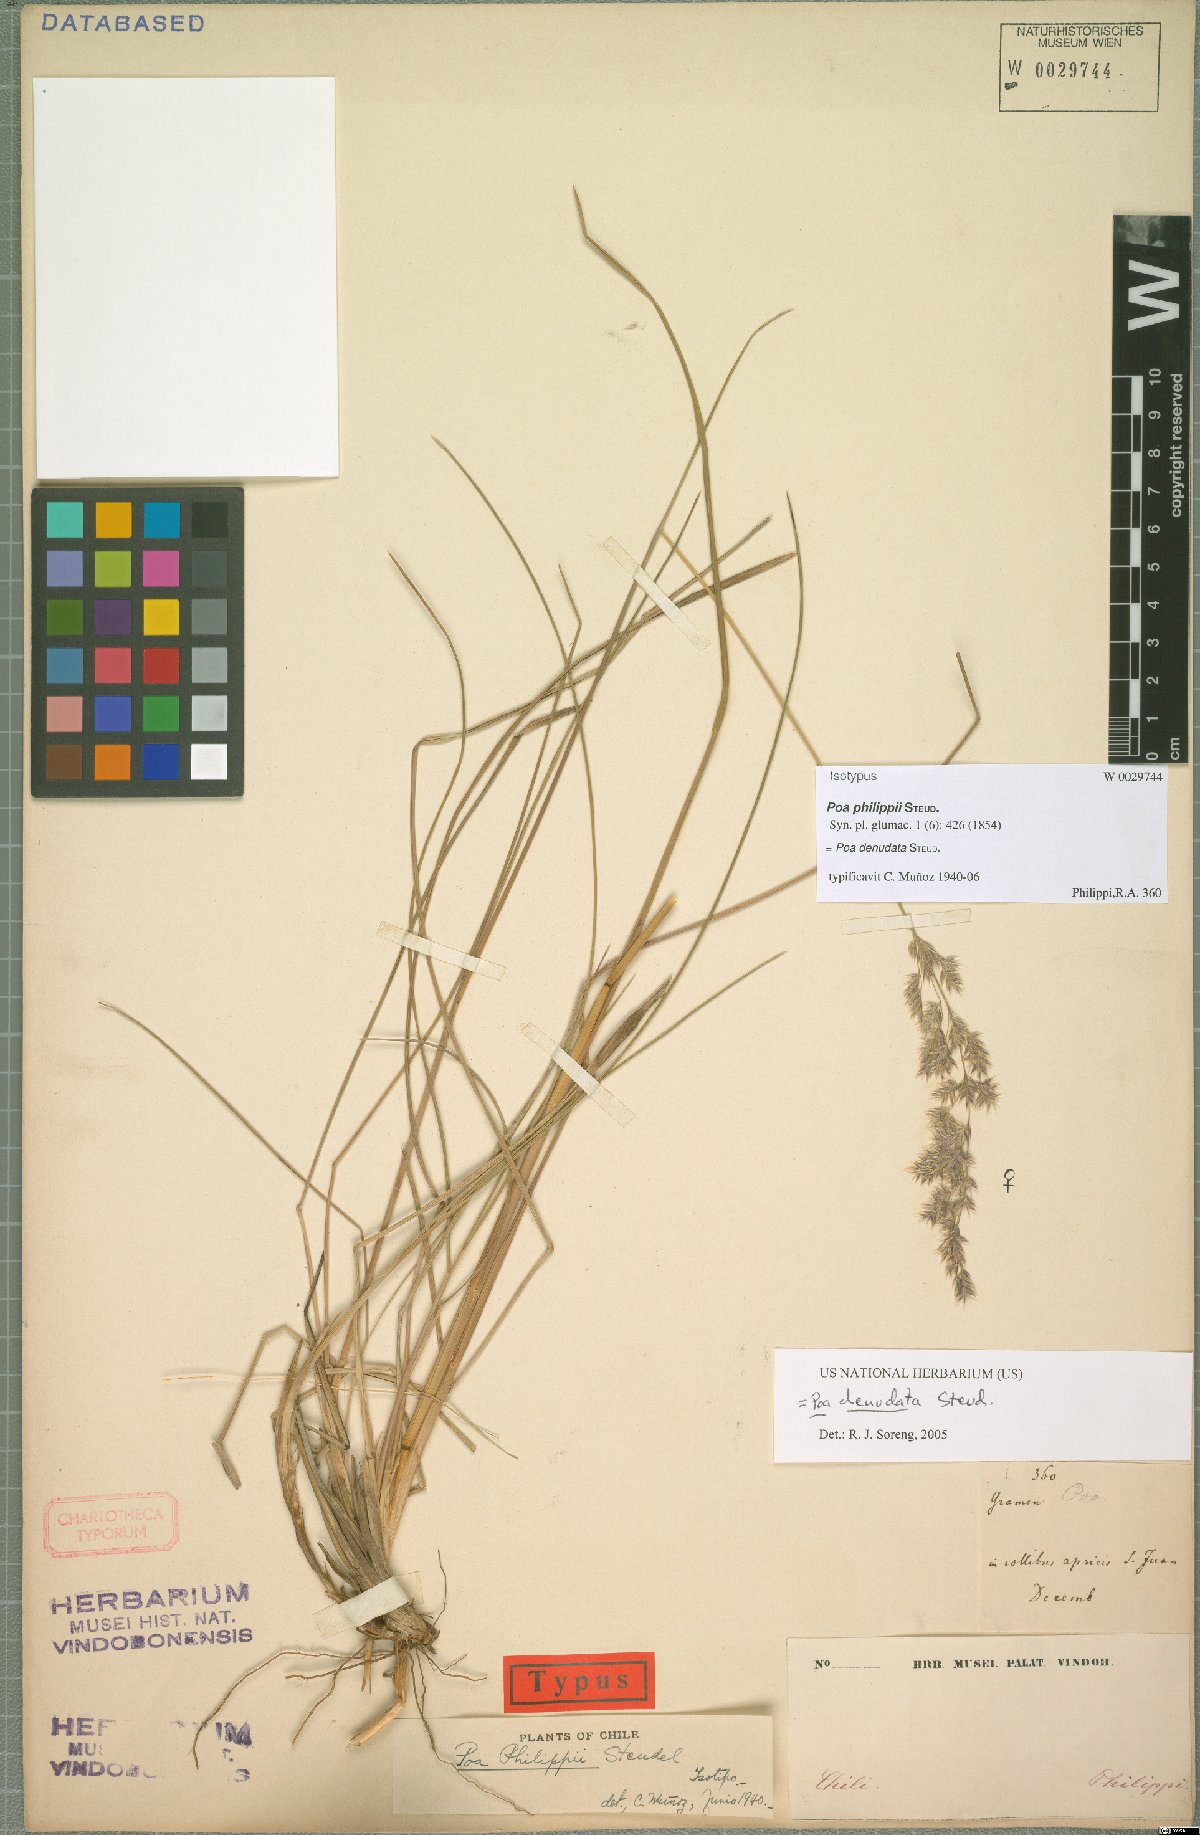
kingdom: Plantae
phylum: Tracheophyta
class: Liliopsida
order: Poales
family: Poaceae
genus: Poa
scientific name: Poa denudata
